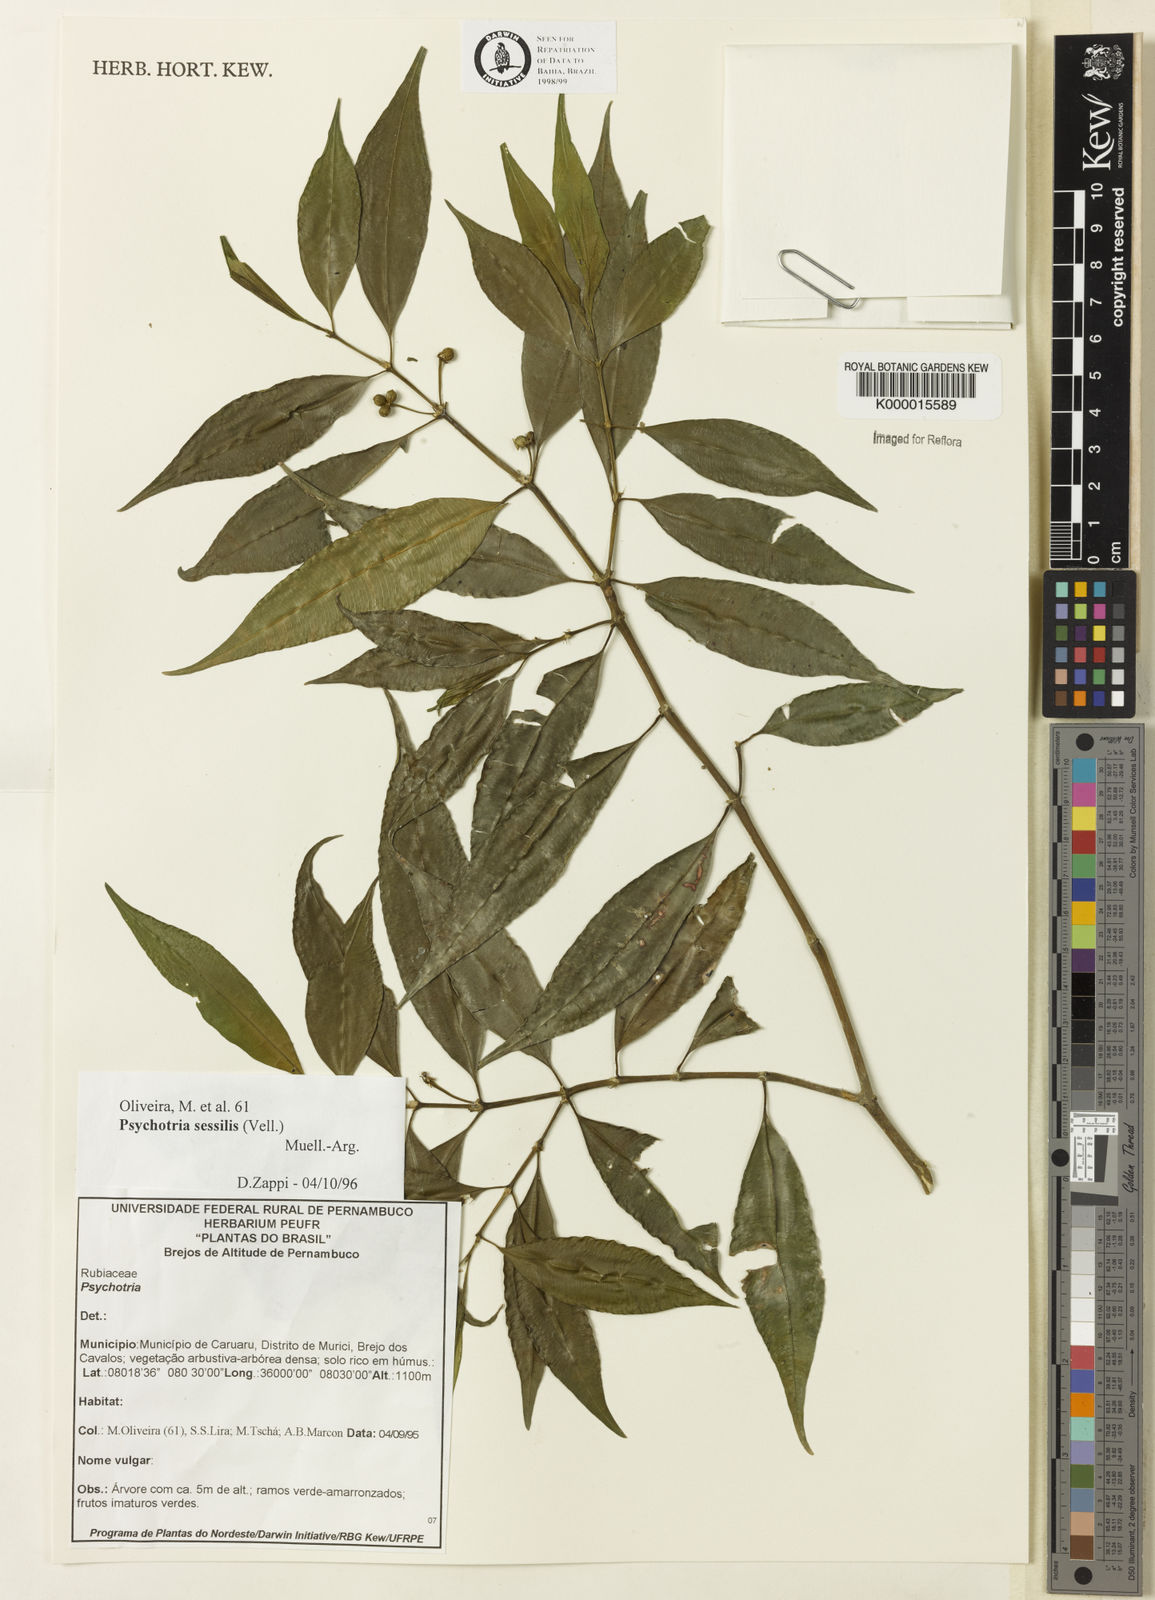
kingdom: Plantae
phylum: Tracheophyta
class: Magnoliopsida
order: Gentianales
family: Rubiaceae
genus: Psychotria
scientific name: Psychotria
